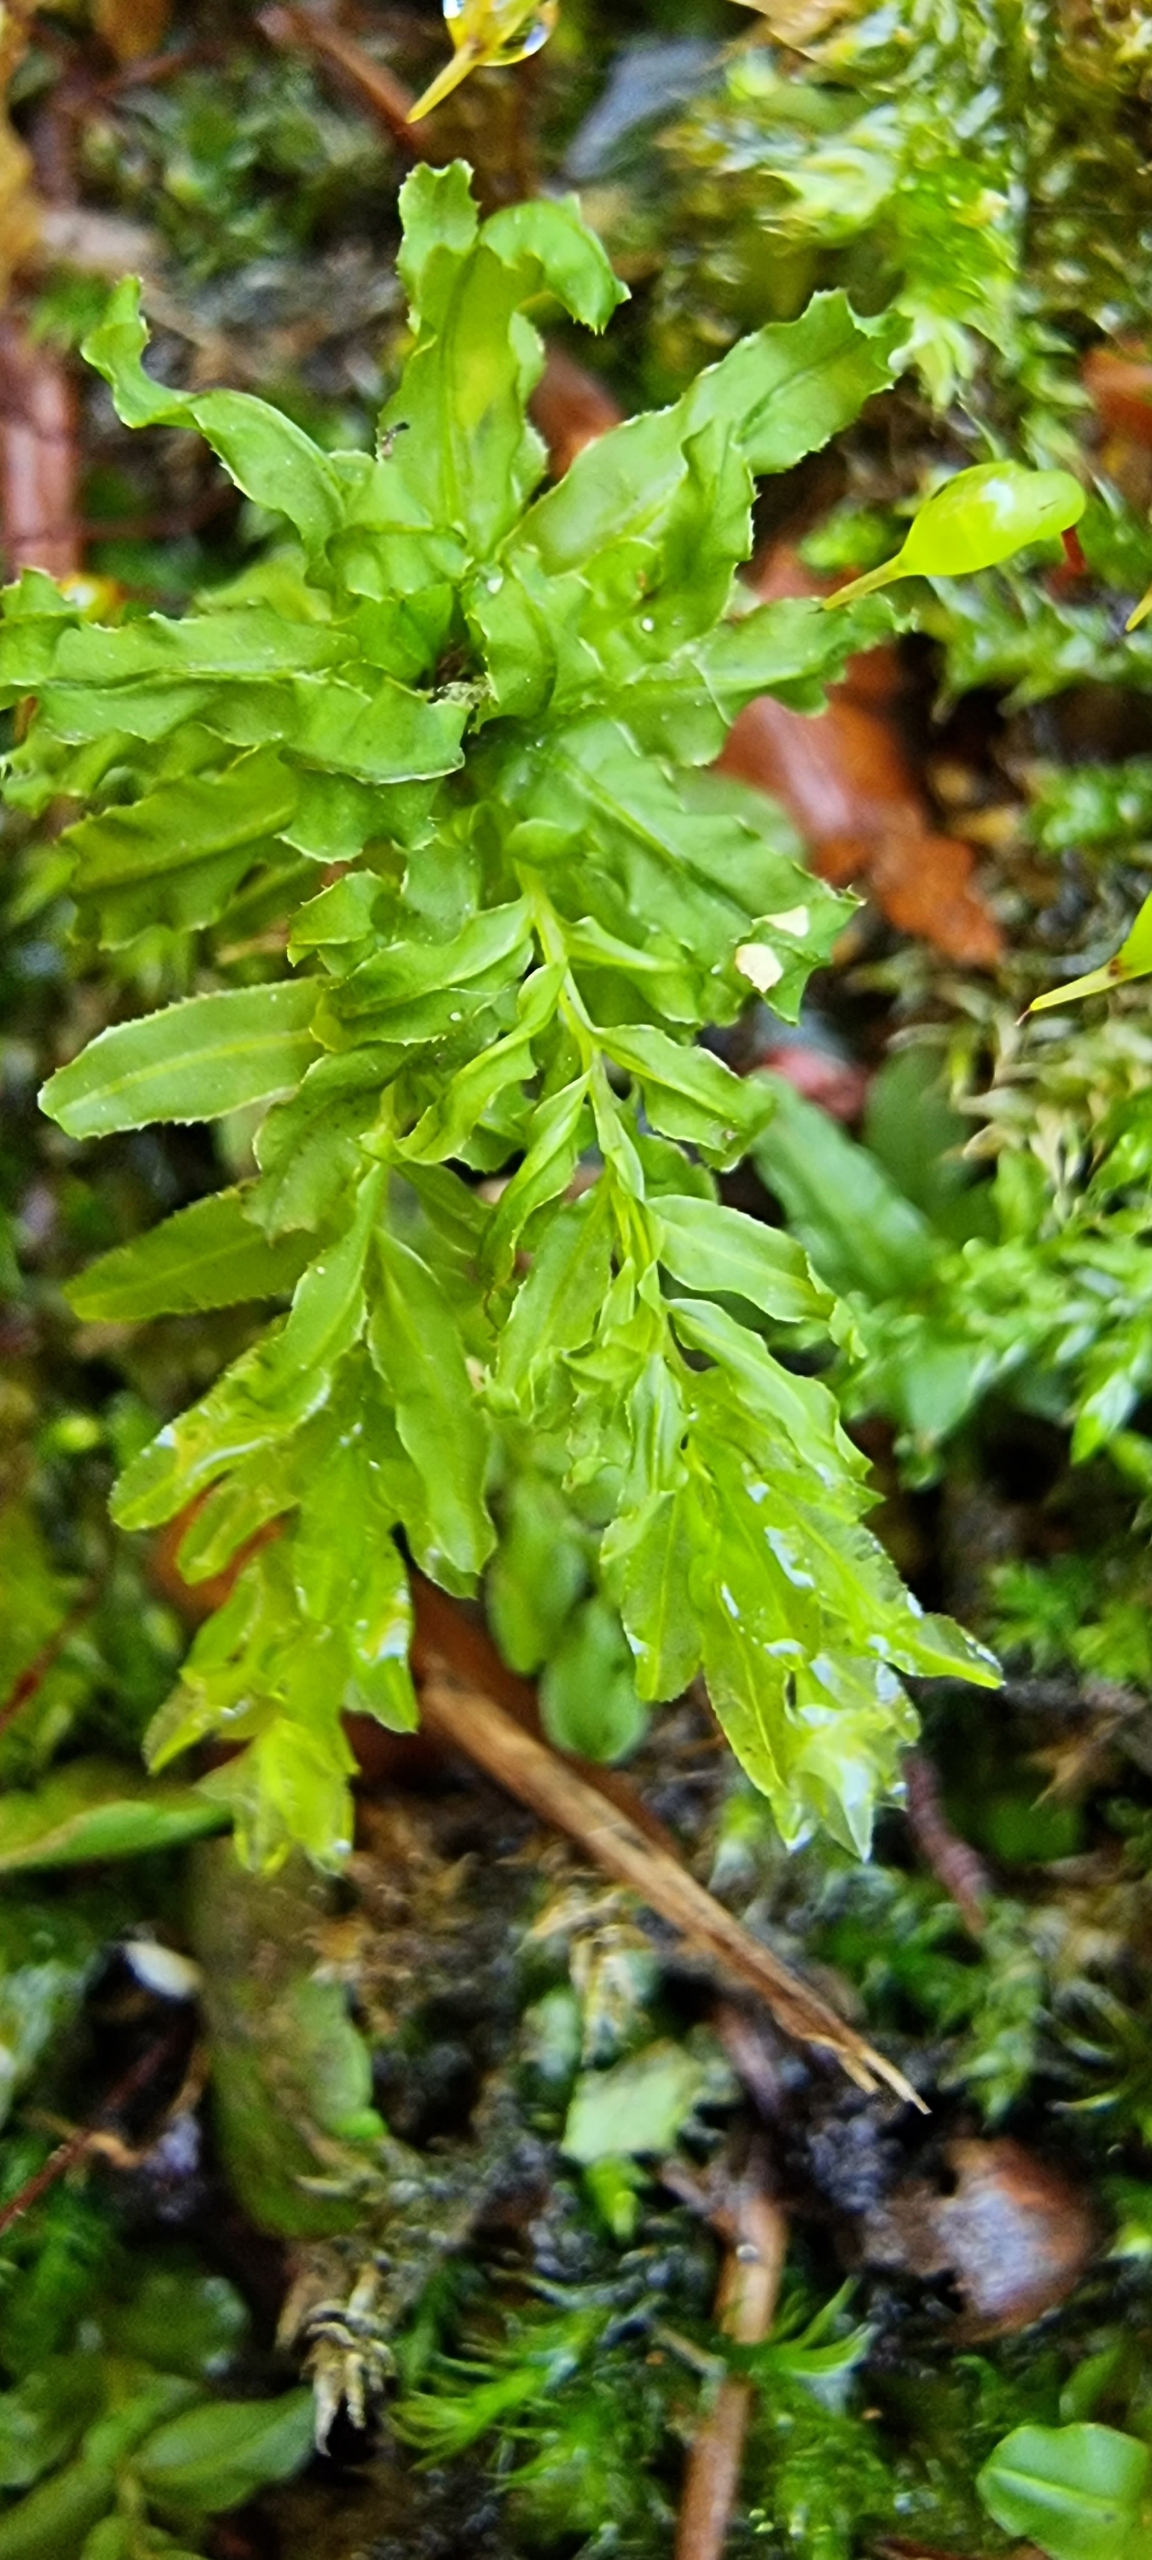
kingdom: Plantae
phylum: Bryophyta
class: Bryopsida
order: Bryales
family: Mniaceae
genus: Plagiomnium
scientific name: Plagiomnium undulatum
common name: Bølget krybstjerne
